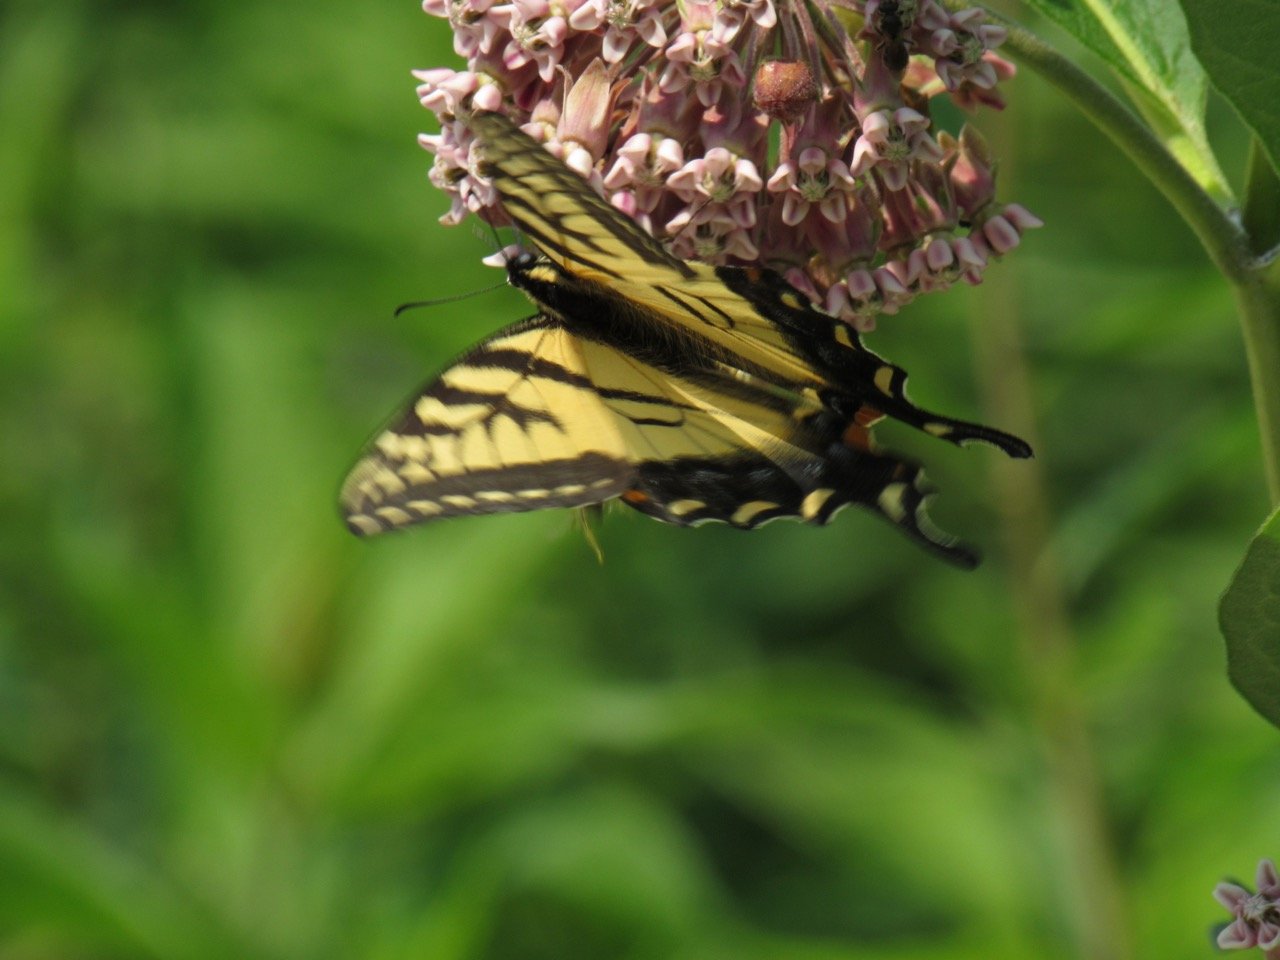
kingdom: Animalia
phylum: Arthropoda
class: Insecta
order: Lepidoptera
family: Papilionidae
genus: Pterourus
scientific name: Pterourus
